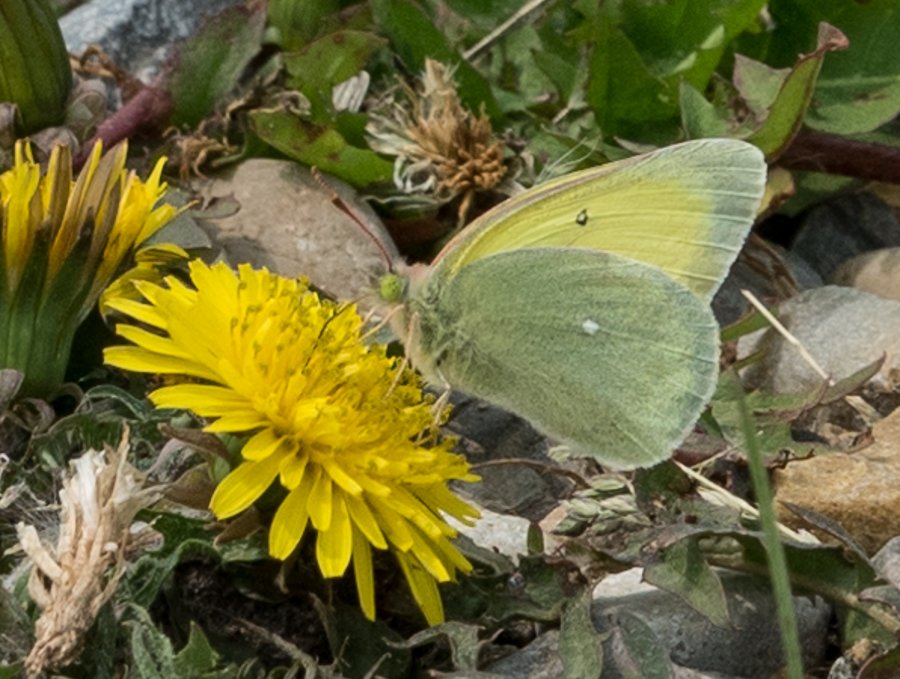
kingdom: Animalia
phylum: Arthropoda
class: Insecta
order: Lepidoptera
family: Pieridae
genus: Colias
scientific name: Colias alexandra
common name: Queen Alexandra's Sulphur
